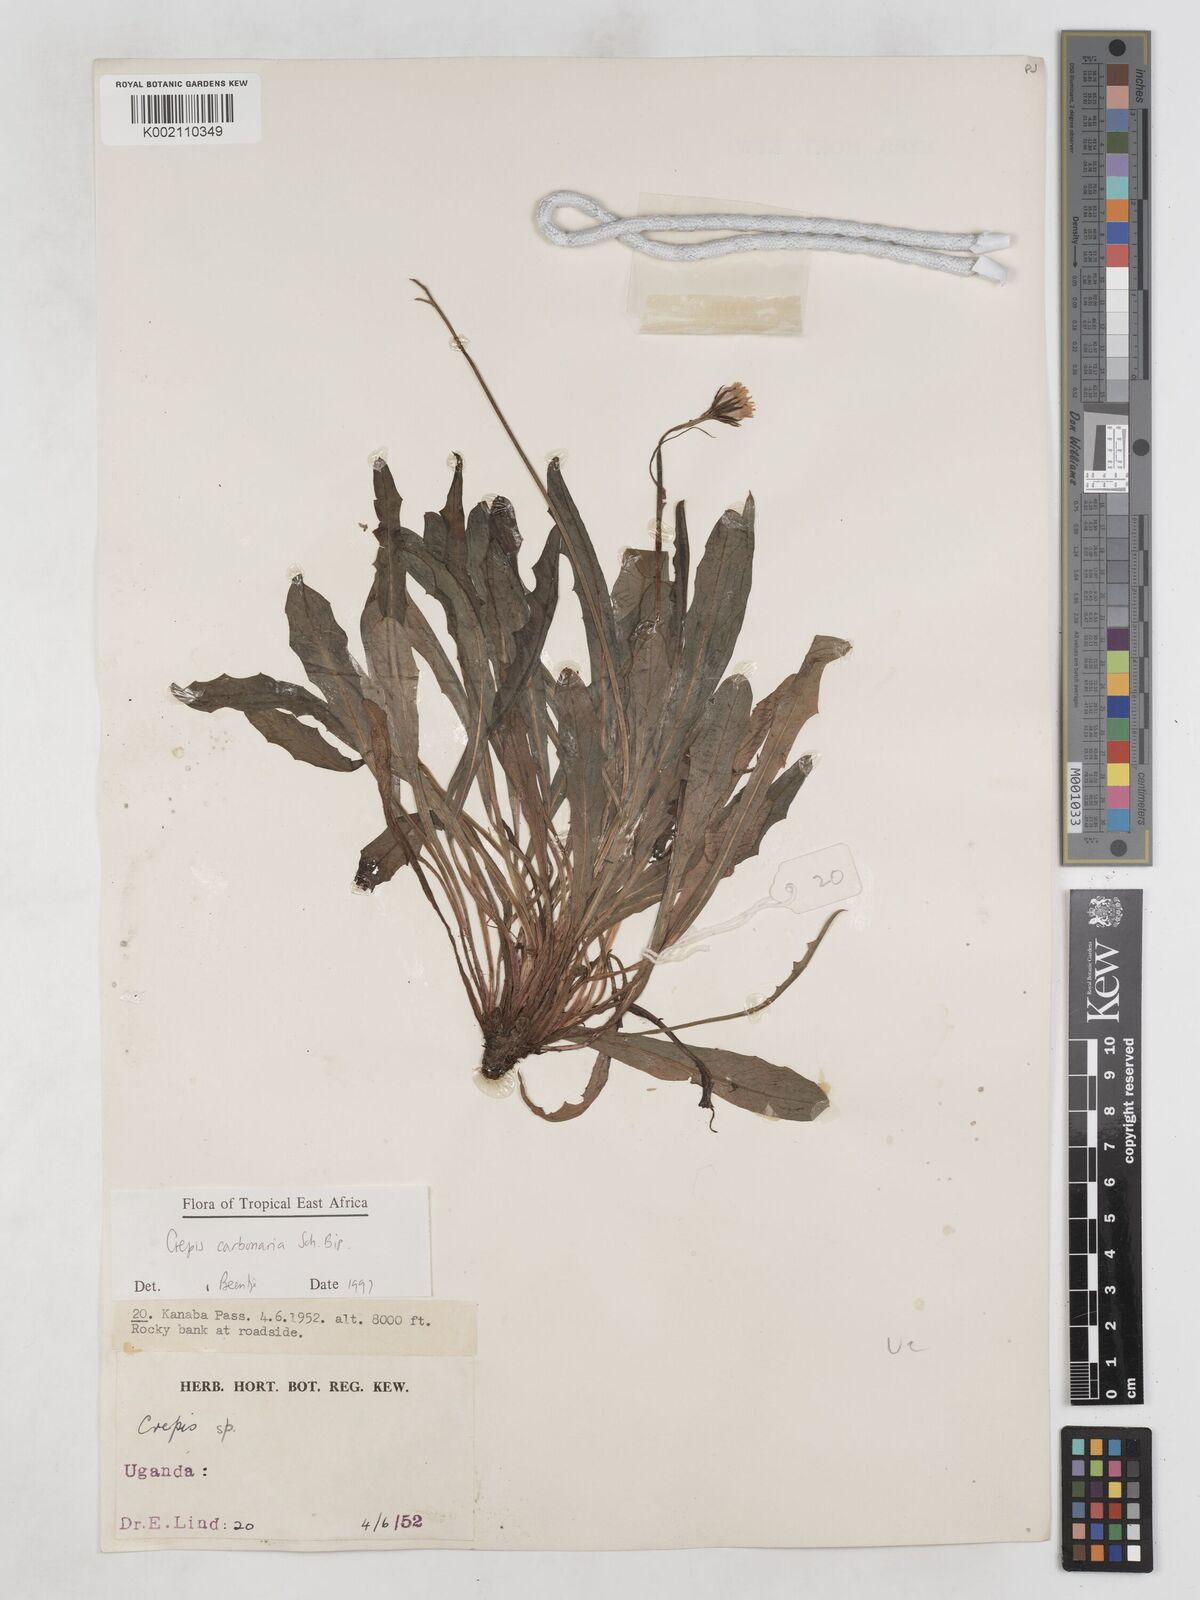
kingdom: Plantae
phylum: Tracheophyta
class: Magnoliopsida
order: Asterales
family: Asteraceae
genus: Crepis
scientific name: Crepis carbonaria
